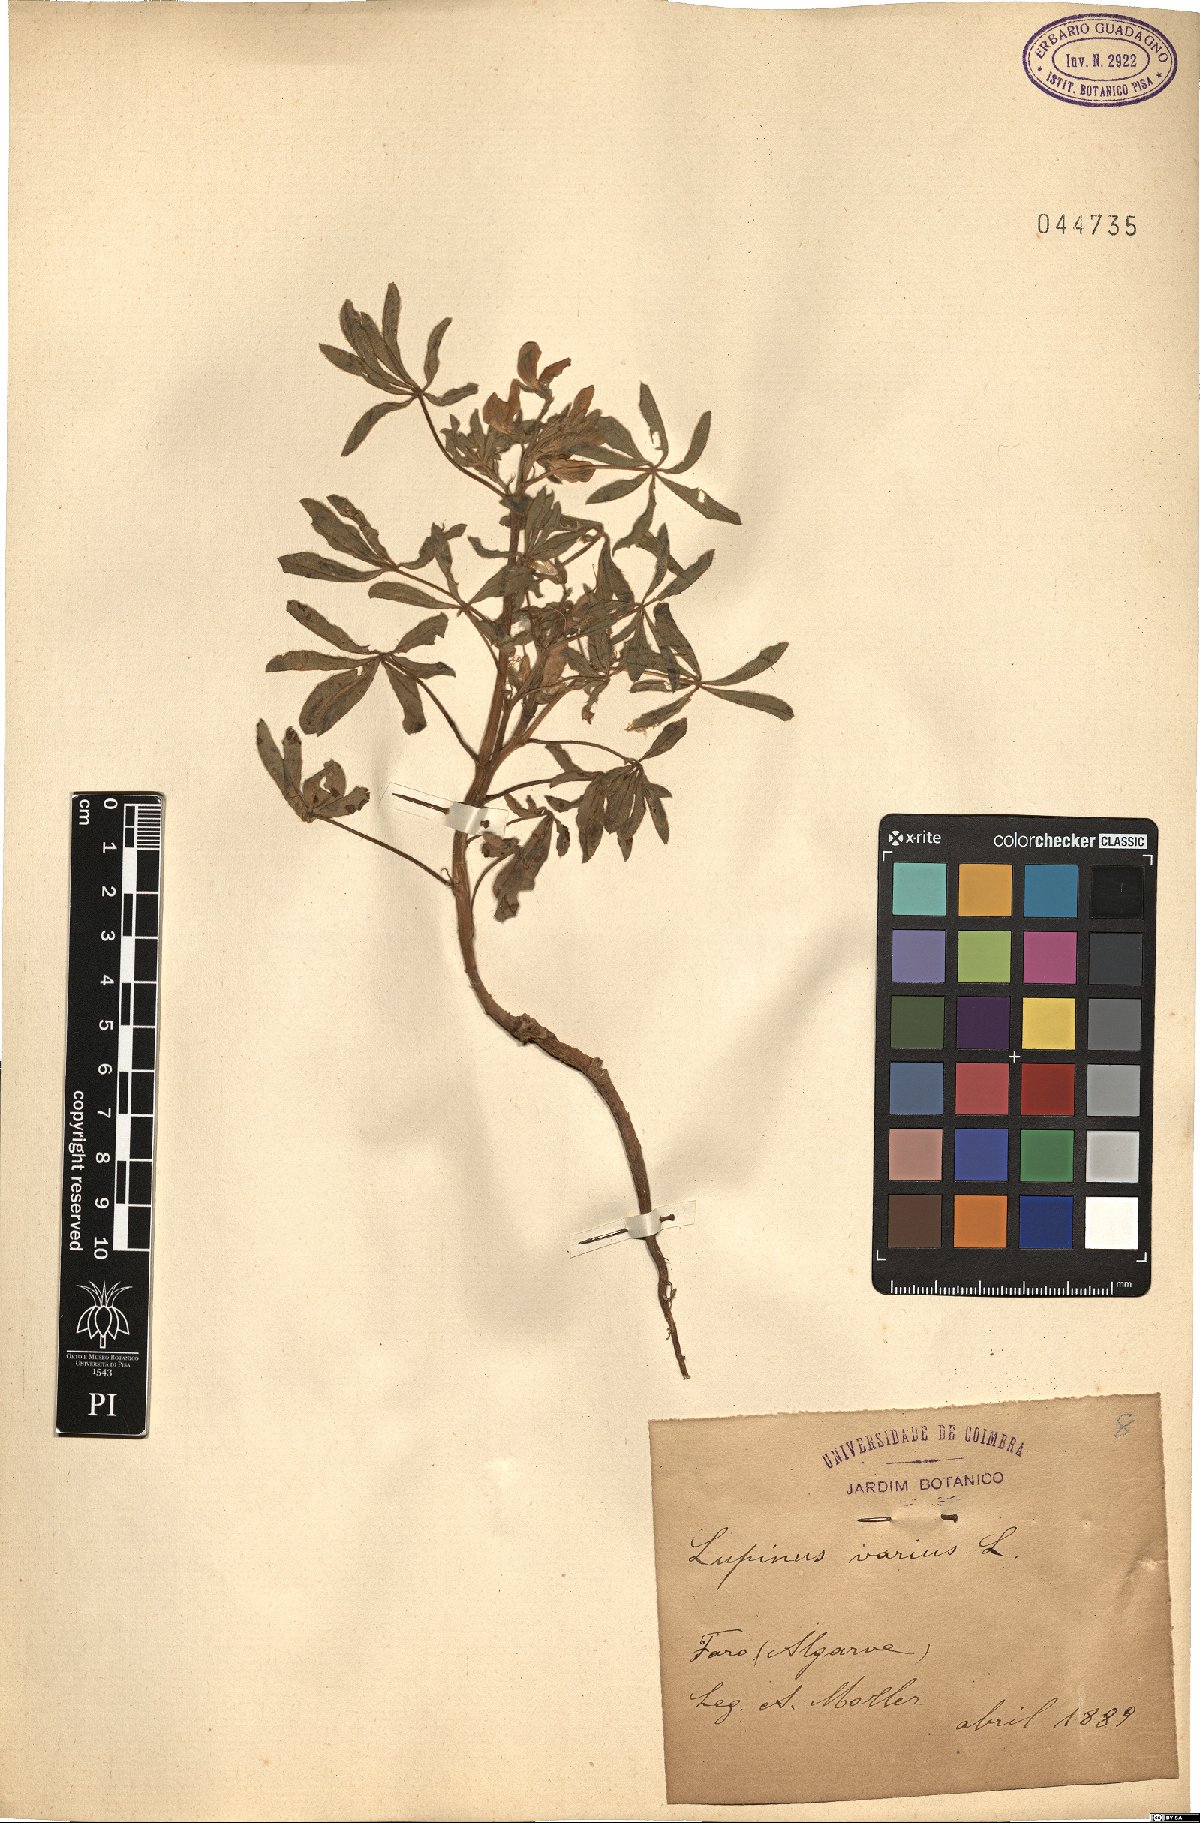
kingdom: Plantae
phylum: Tracheophyta
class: Magnoliopsida
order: Fabales
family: Fabaceae
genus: Lupinus
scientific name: Lupinus angustifolius
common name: Narrow-leaved lupin
